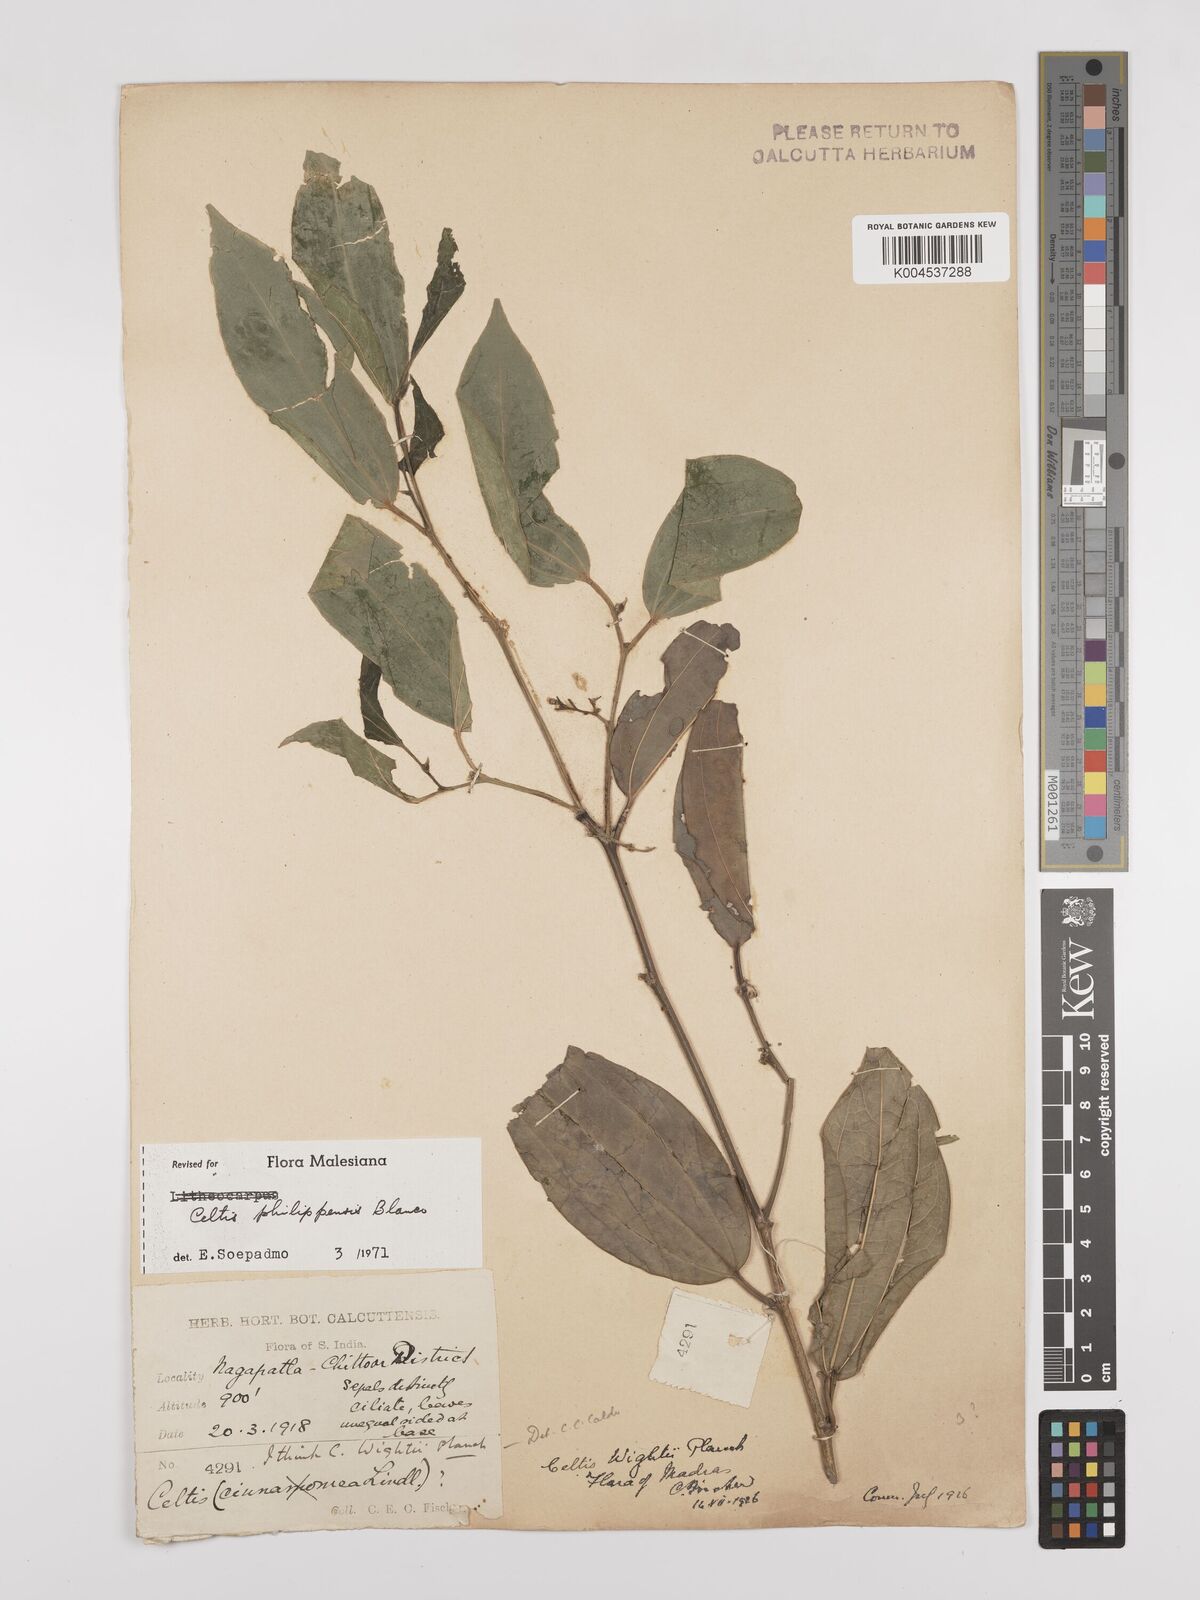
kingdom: Plantae
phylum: Tracheophyta
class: Magnoliopsida
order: Rosales
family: Cannabaceae
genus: Celtis
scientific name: Celtis philippensis
